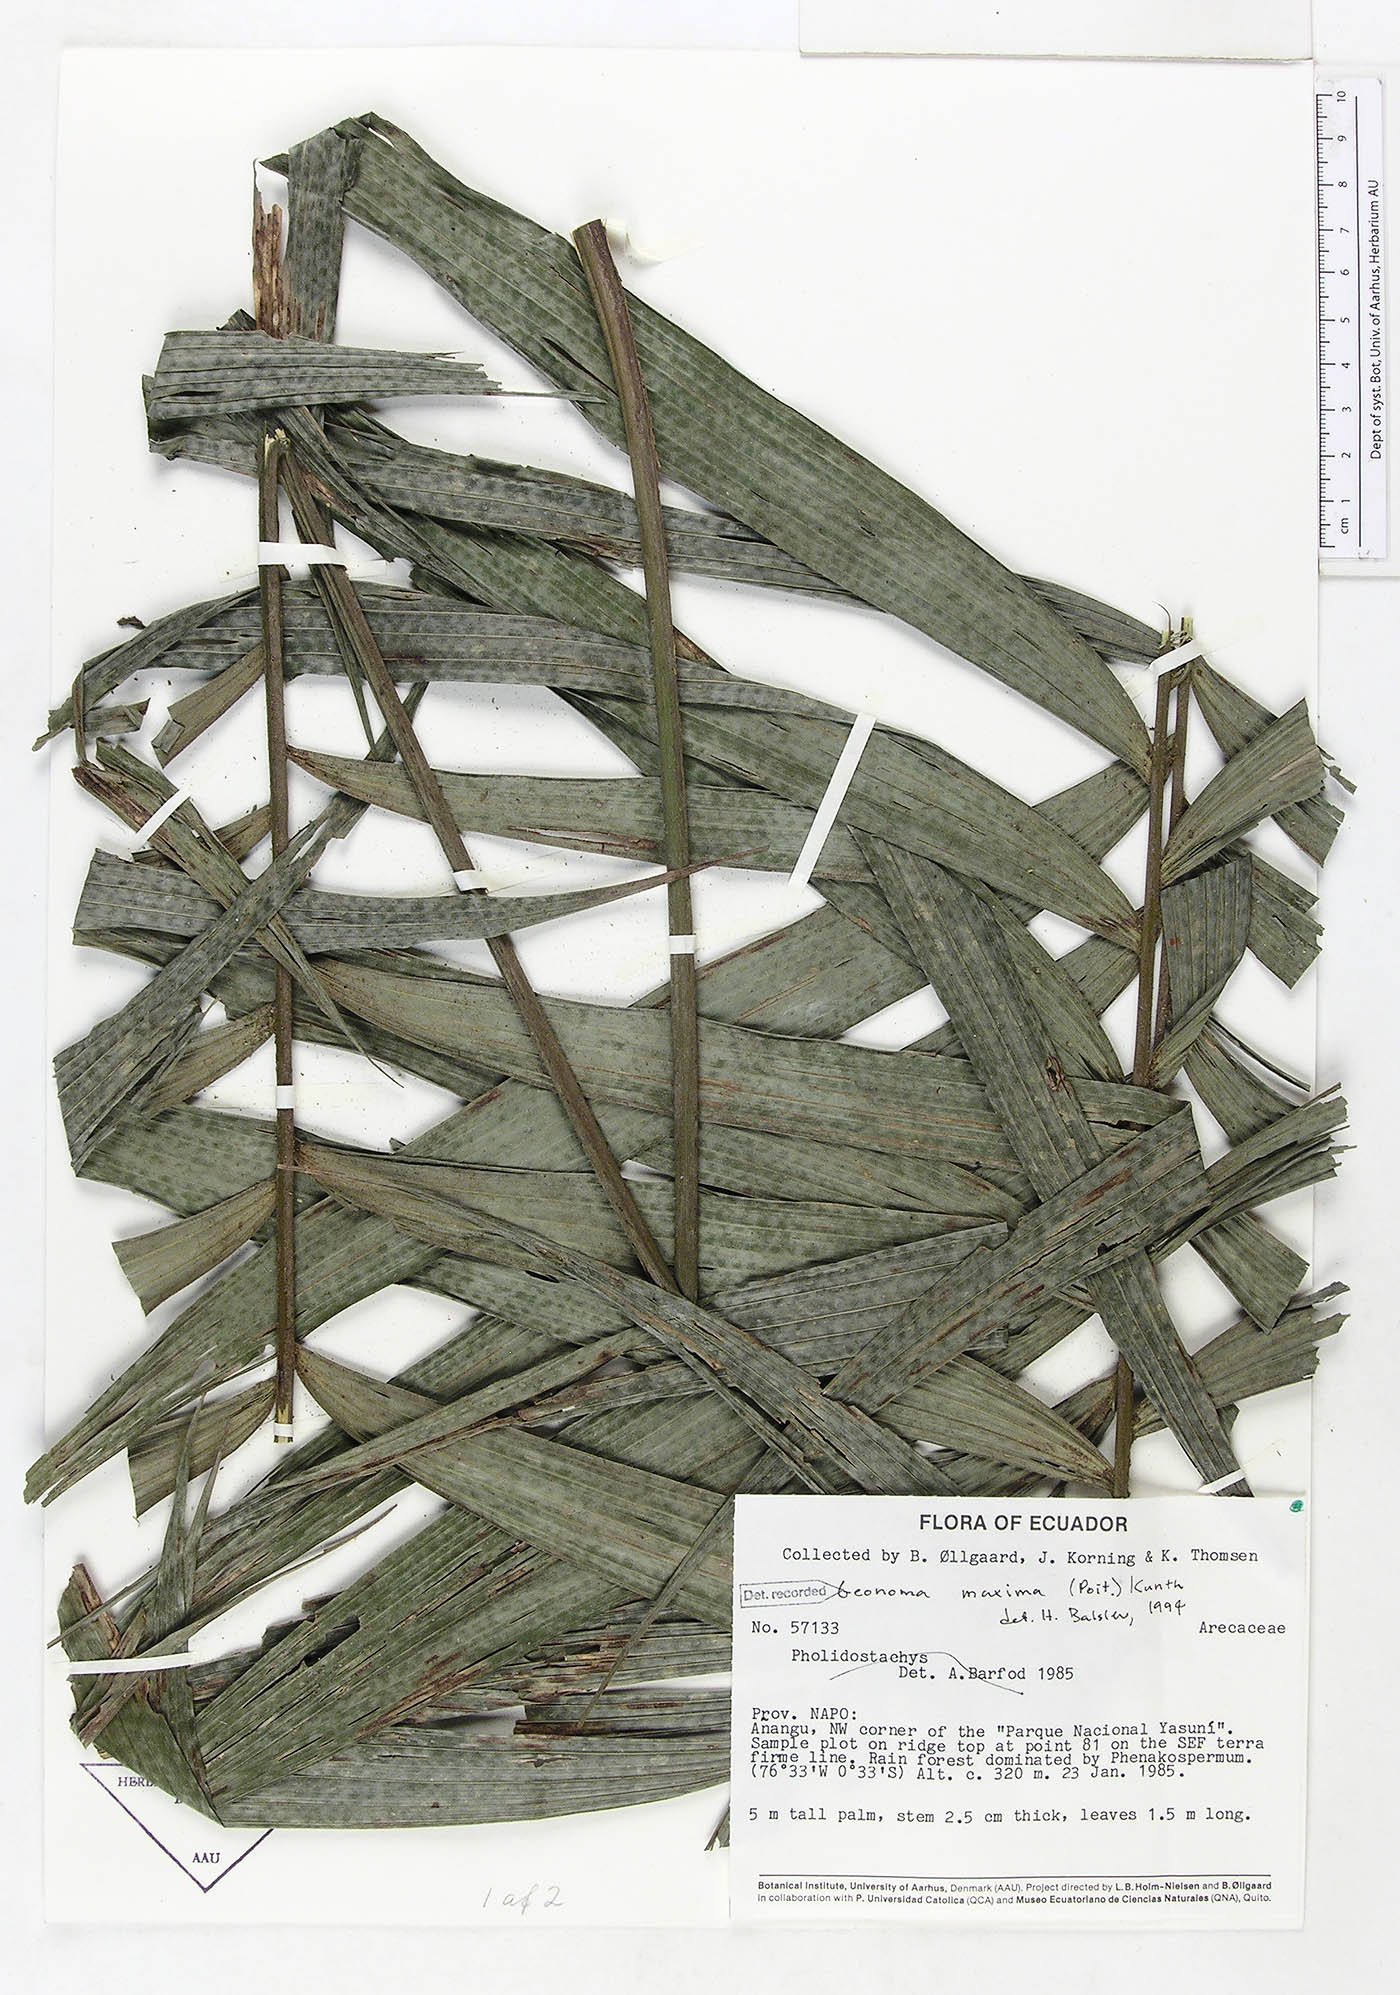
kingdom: Plantae
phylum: Tracheophyta
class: Liliopsida
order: Arecales
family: Arecaceae
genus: Geonoma
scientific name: Geonoma maxima
